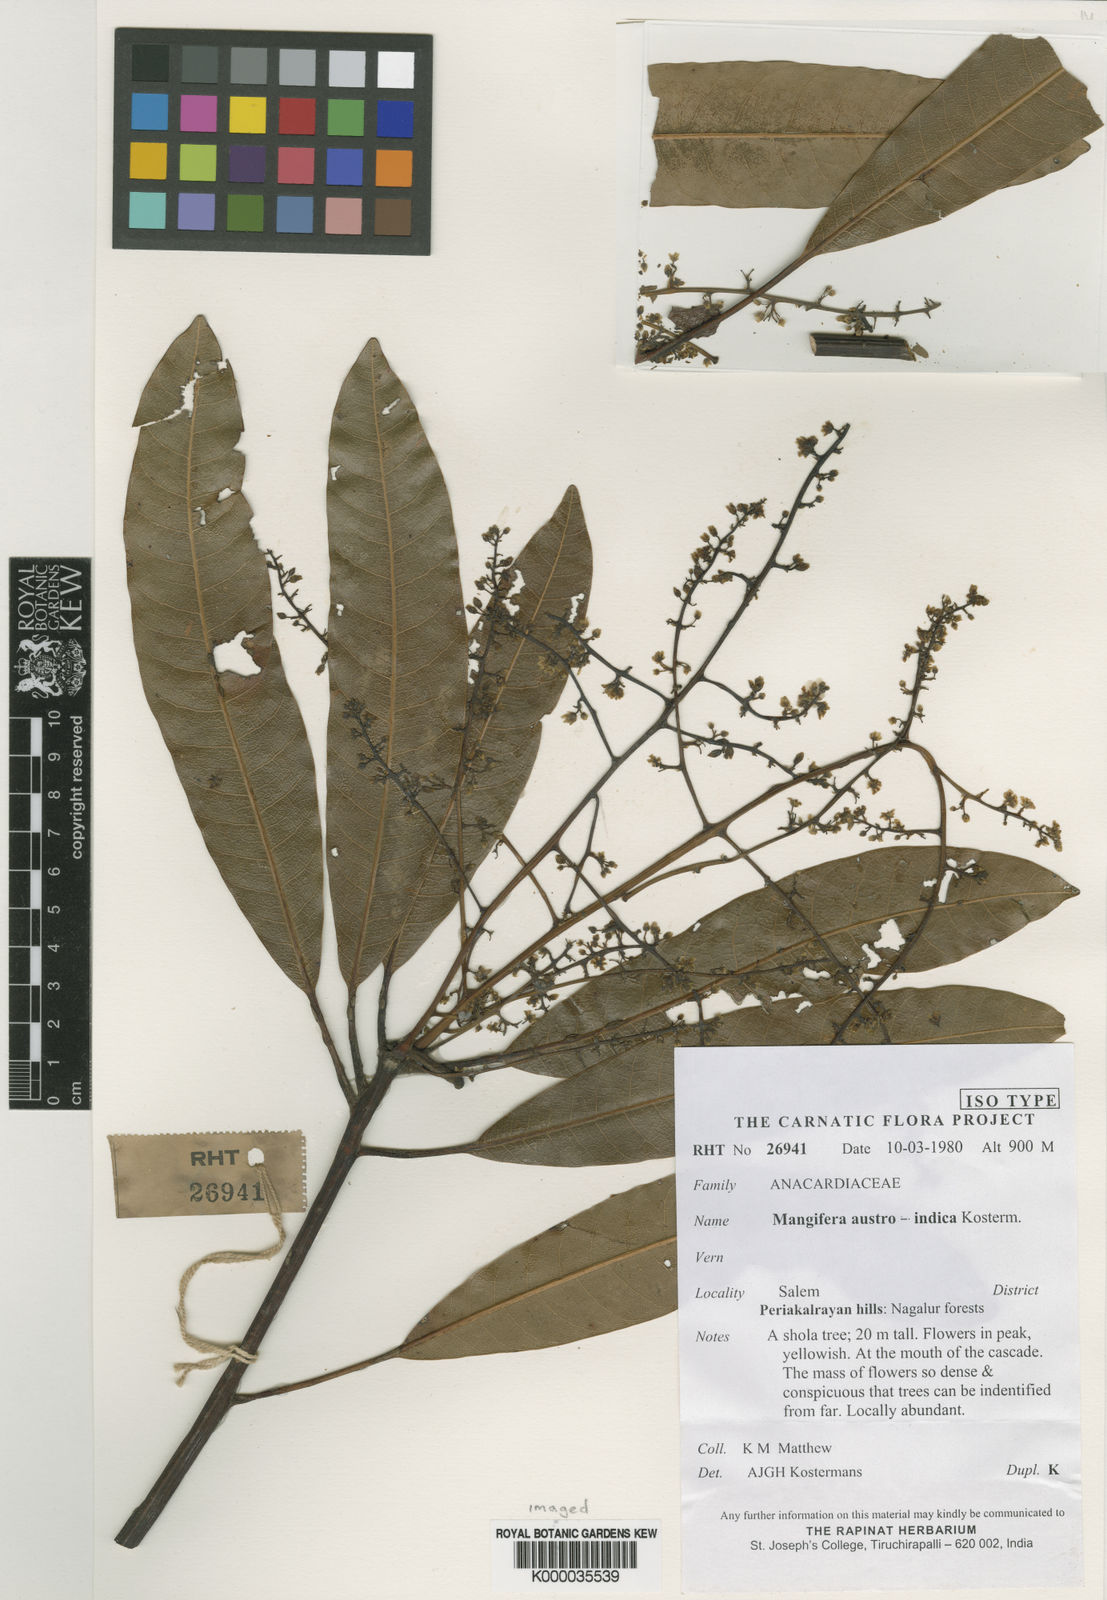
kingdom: Plantae
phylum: Tracheophyta
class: Magnoliopsida
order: Sapindales
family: Anacardiaceae
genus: Mangifera
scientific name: Mangifera austroindica
